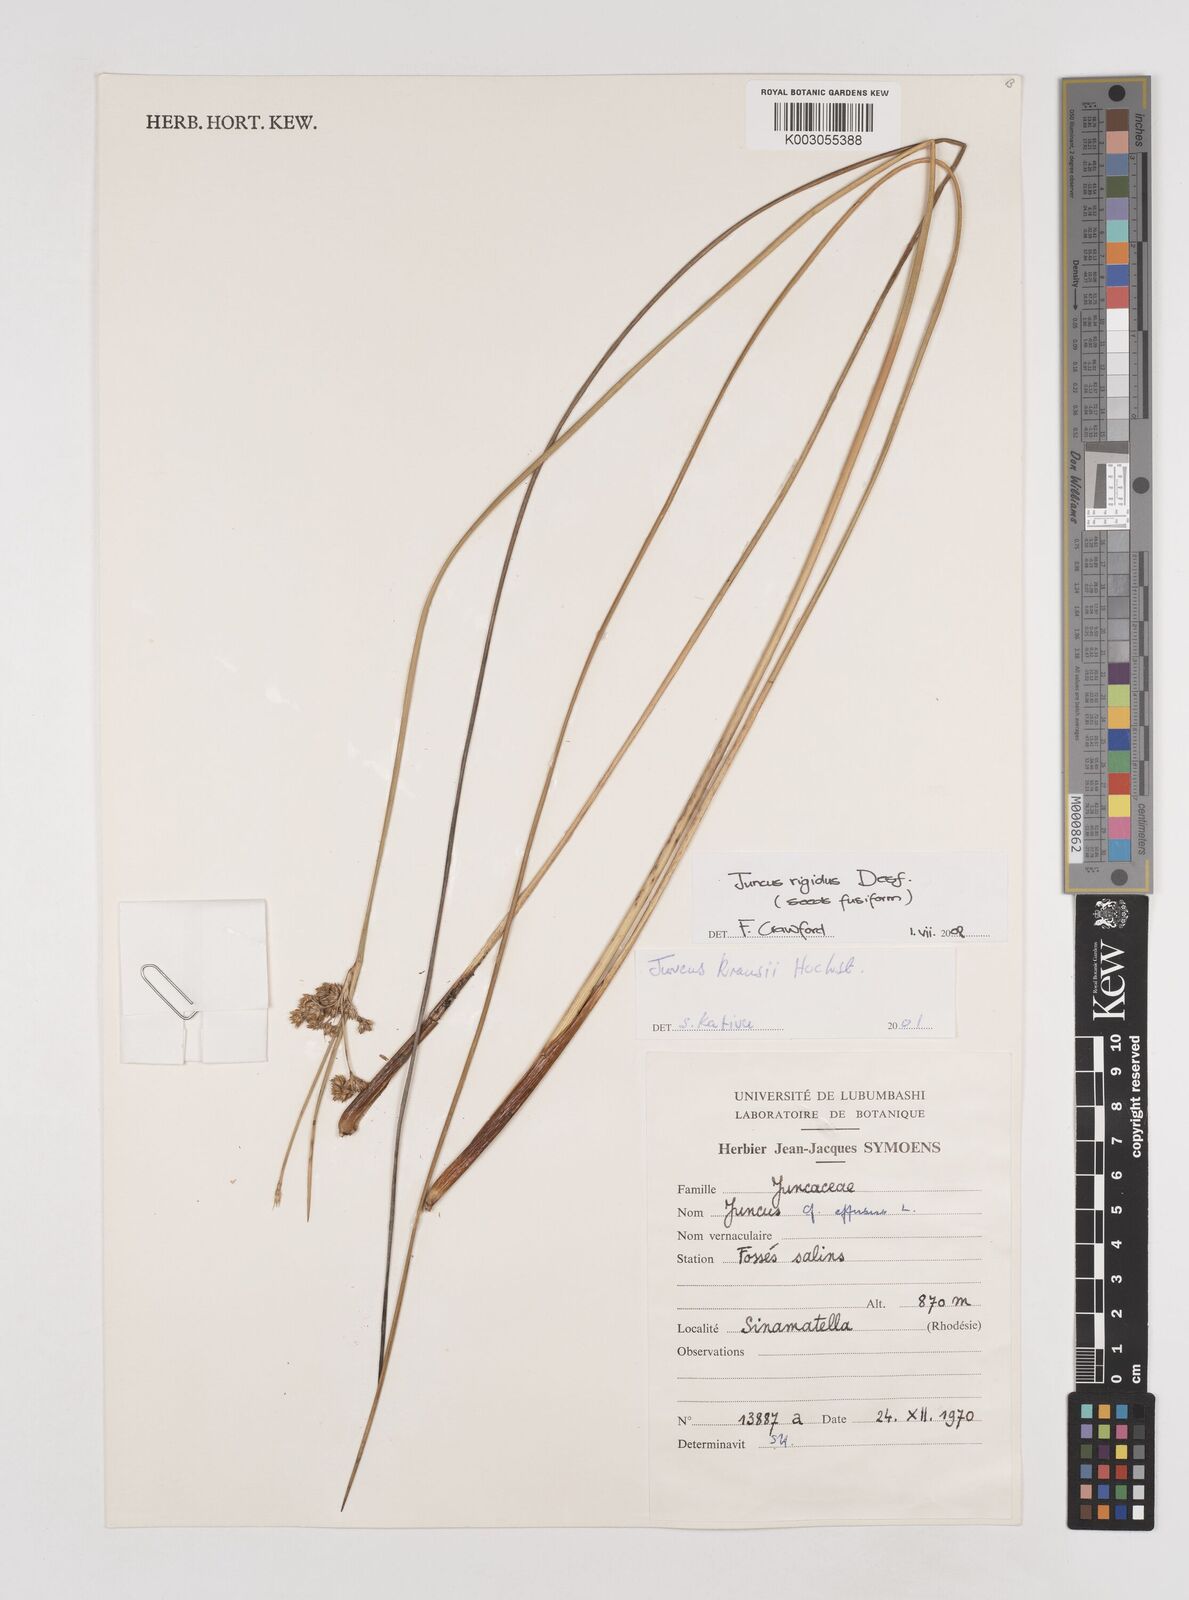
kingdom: Plantae
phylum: Tracheophyta
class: Liliopsida
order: Poales
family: Juncaceae
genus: Juncus
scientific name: Juncus rigidus
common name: Hard sea rush
